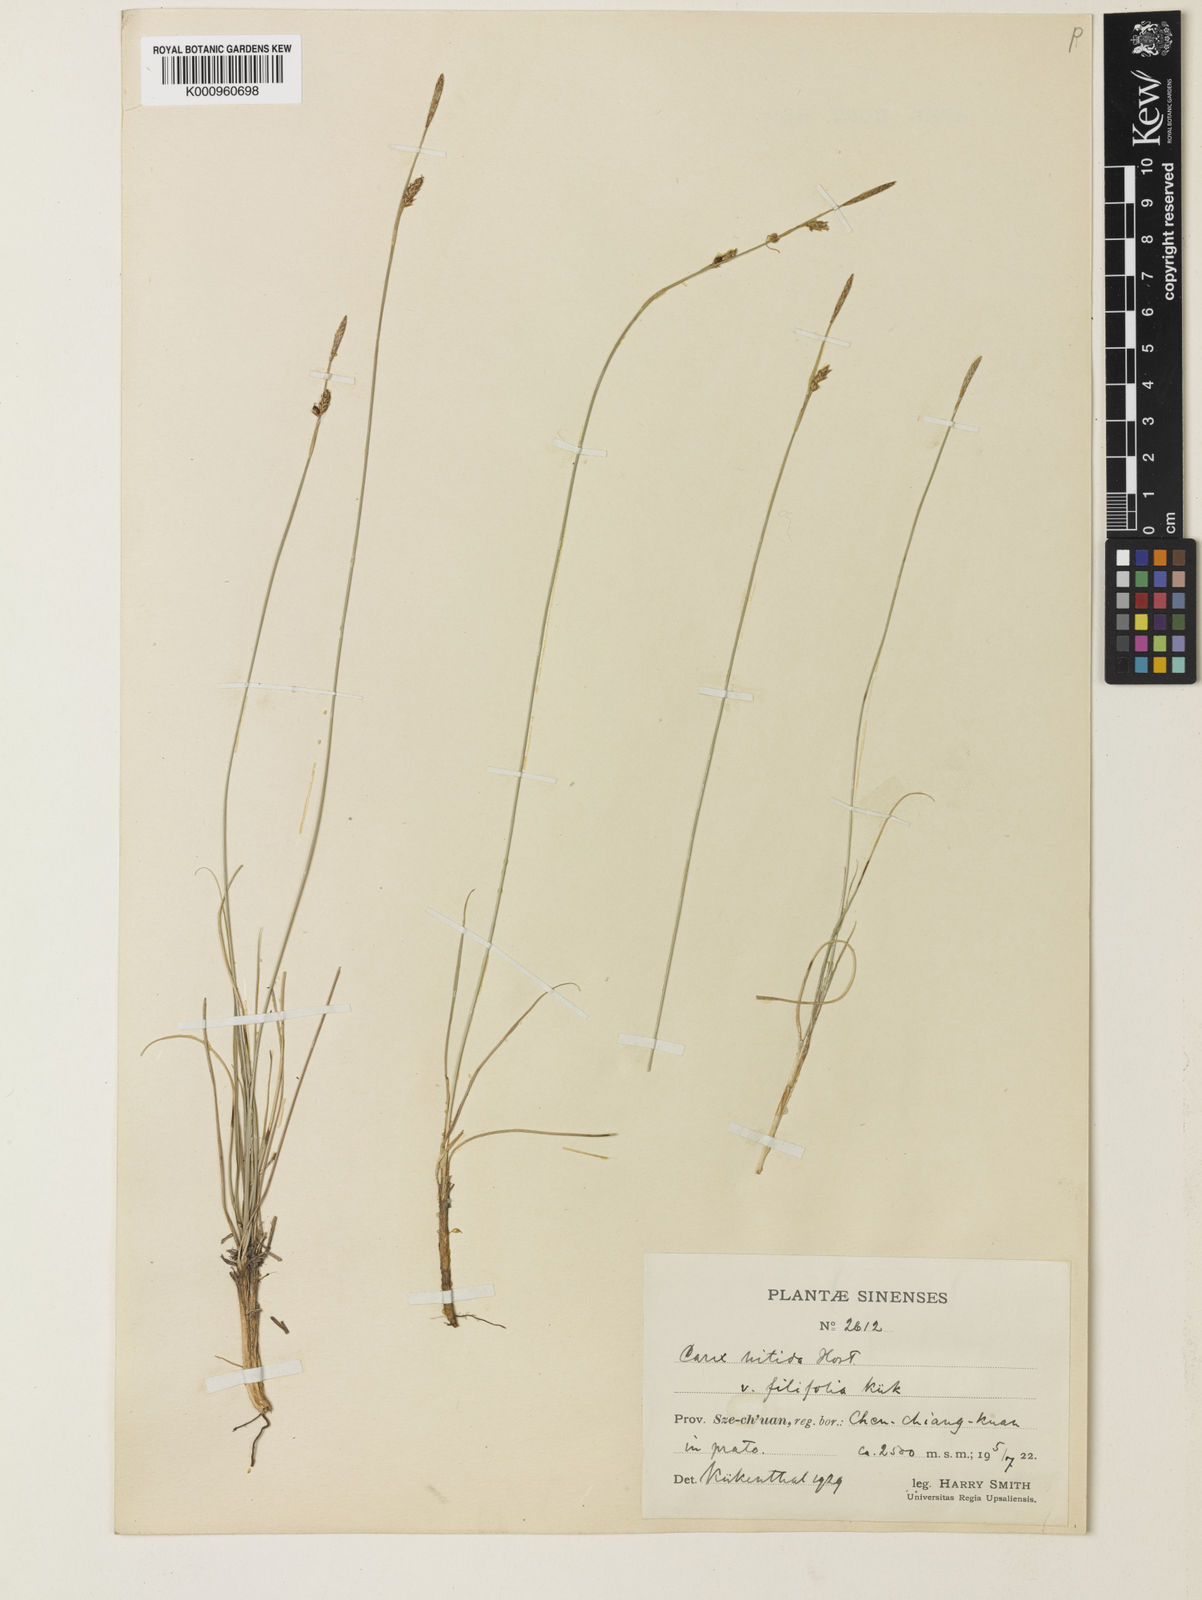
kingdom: Plantae
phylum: Tracheophyta
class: Liliopsida
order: Poales
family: Cyperaceae
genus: Carex
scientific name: Carex liparocarpos
